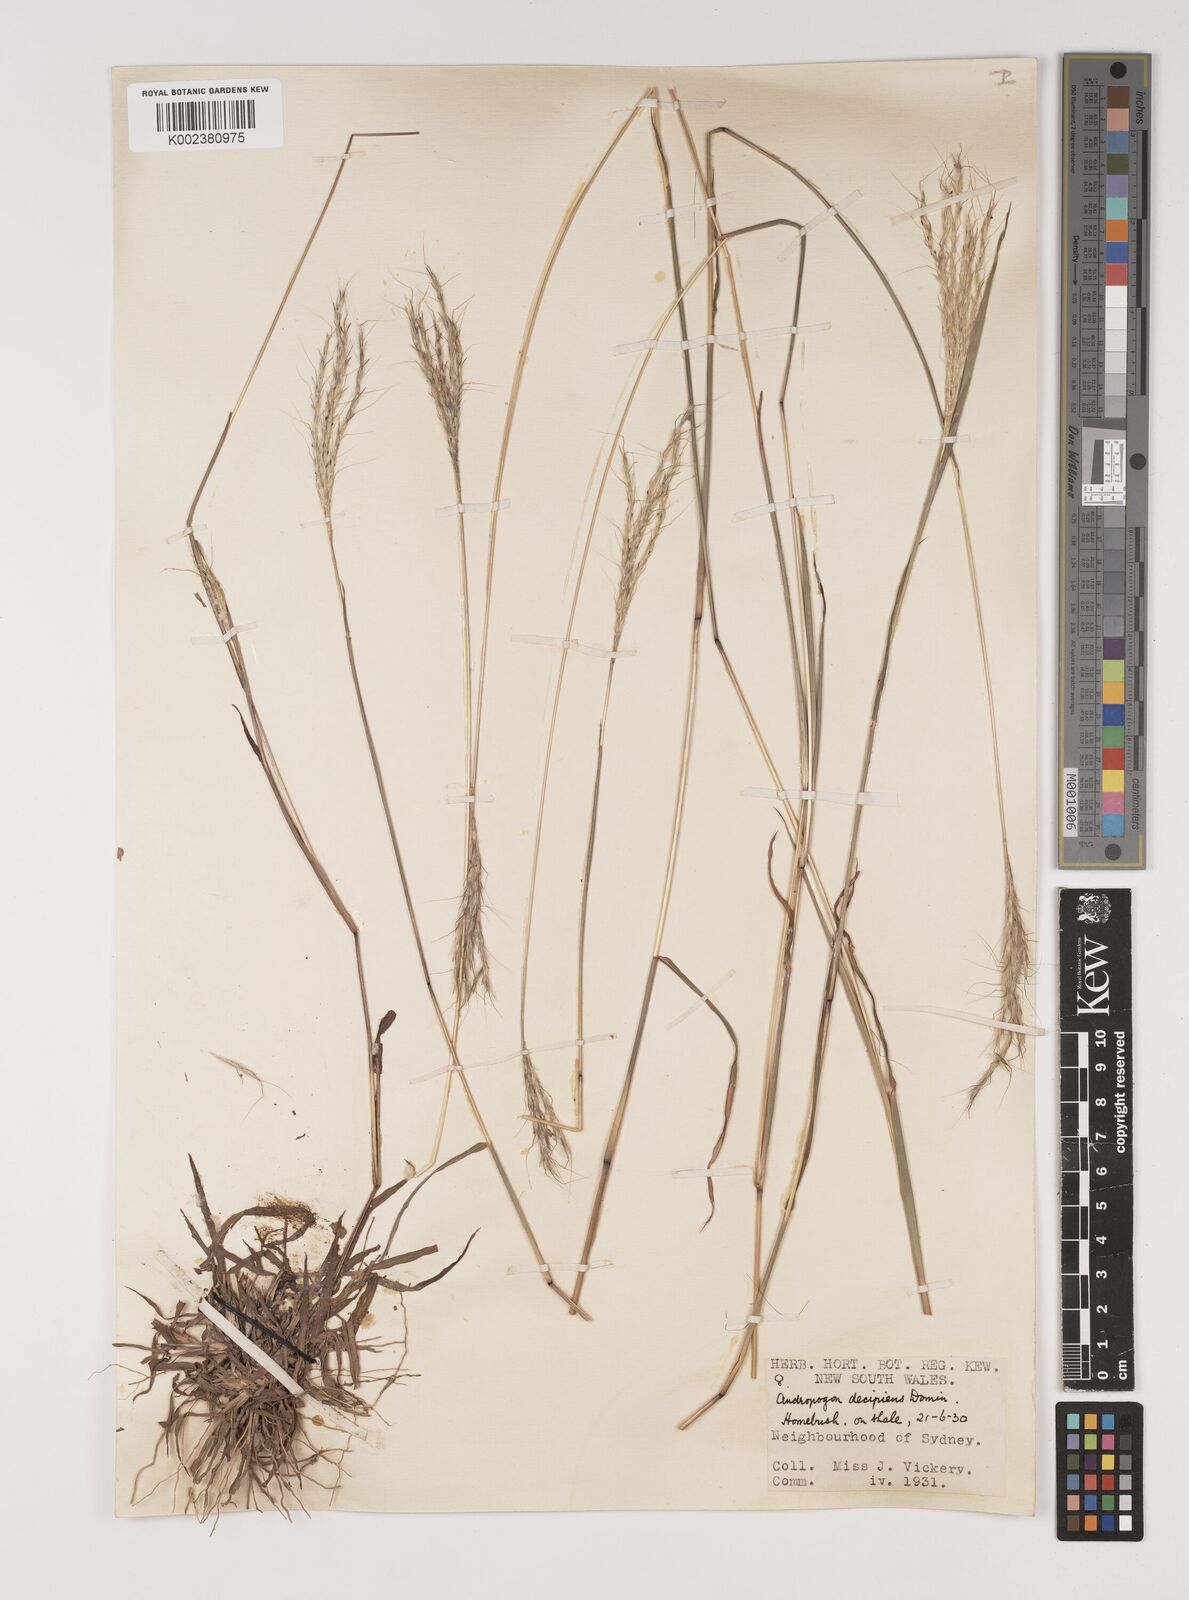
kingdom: Plantae
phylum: Tracheophyta
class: Liliopsida
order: Poales
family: Poaceae
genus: Bothriochloa
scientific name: Bothriochloa decipiens
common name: Pitted-bluegrass
